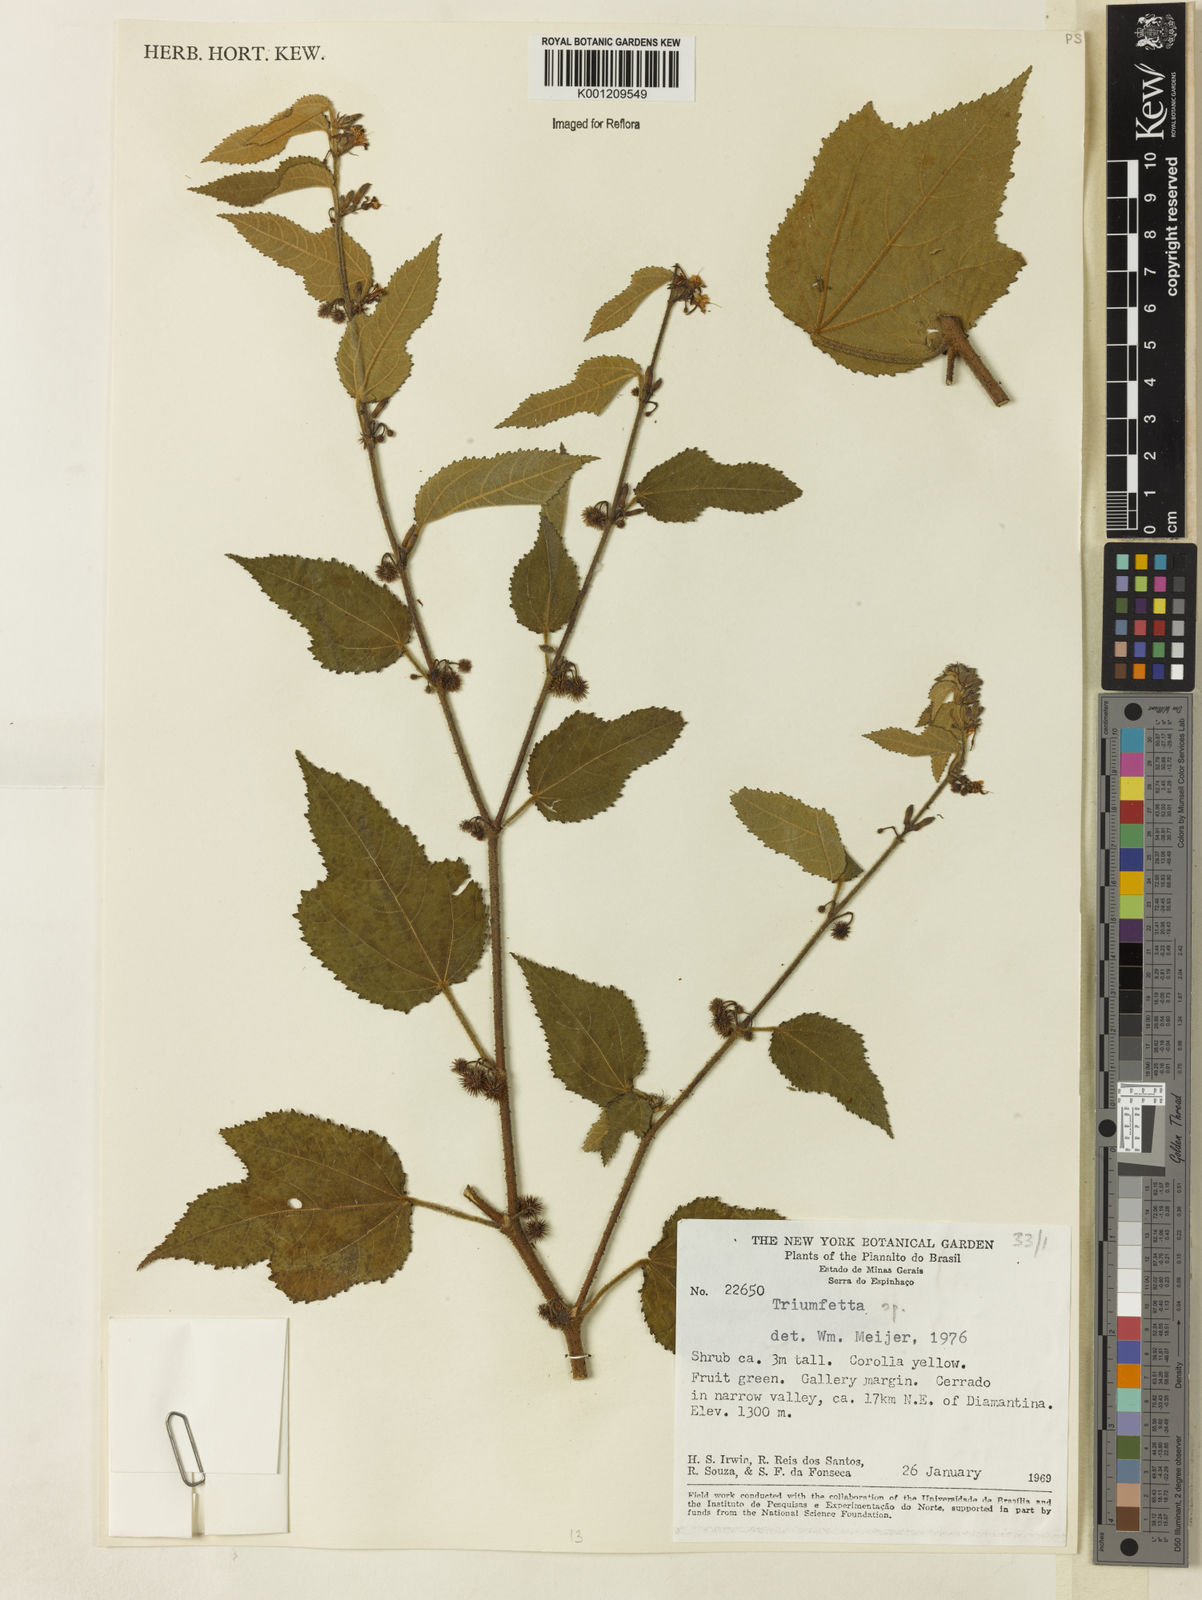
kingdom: Plantae
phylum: Tracheophyta
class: Magnoliopsida
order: Malvales
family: Malvaceae
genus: Triumfetta
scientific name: Triumfetta
